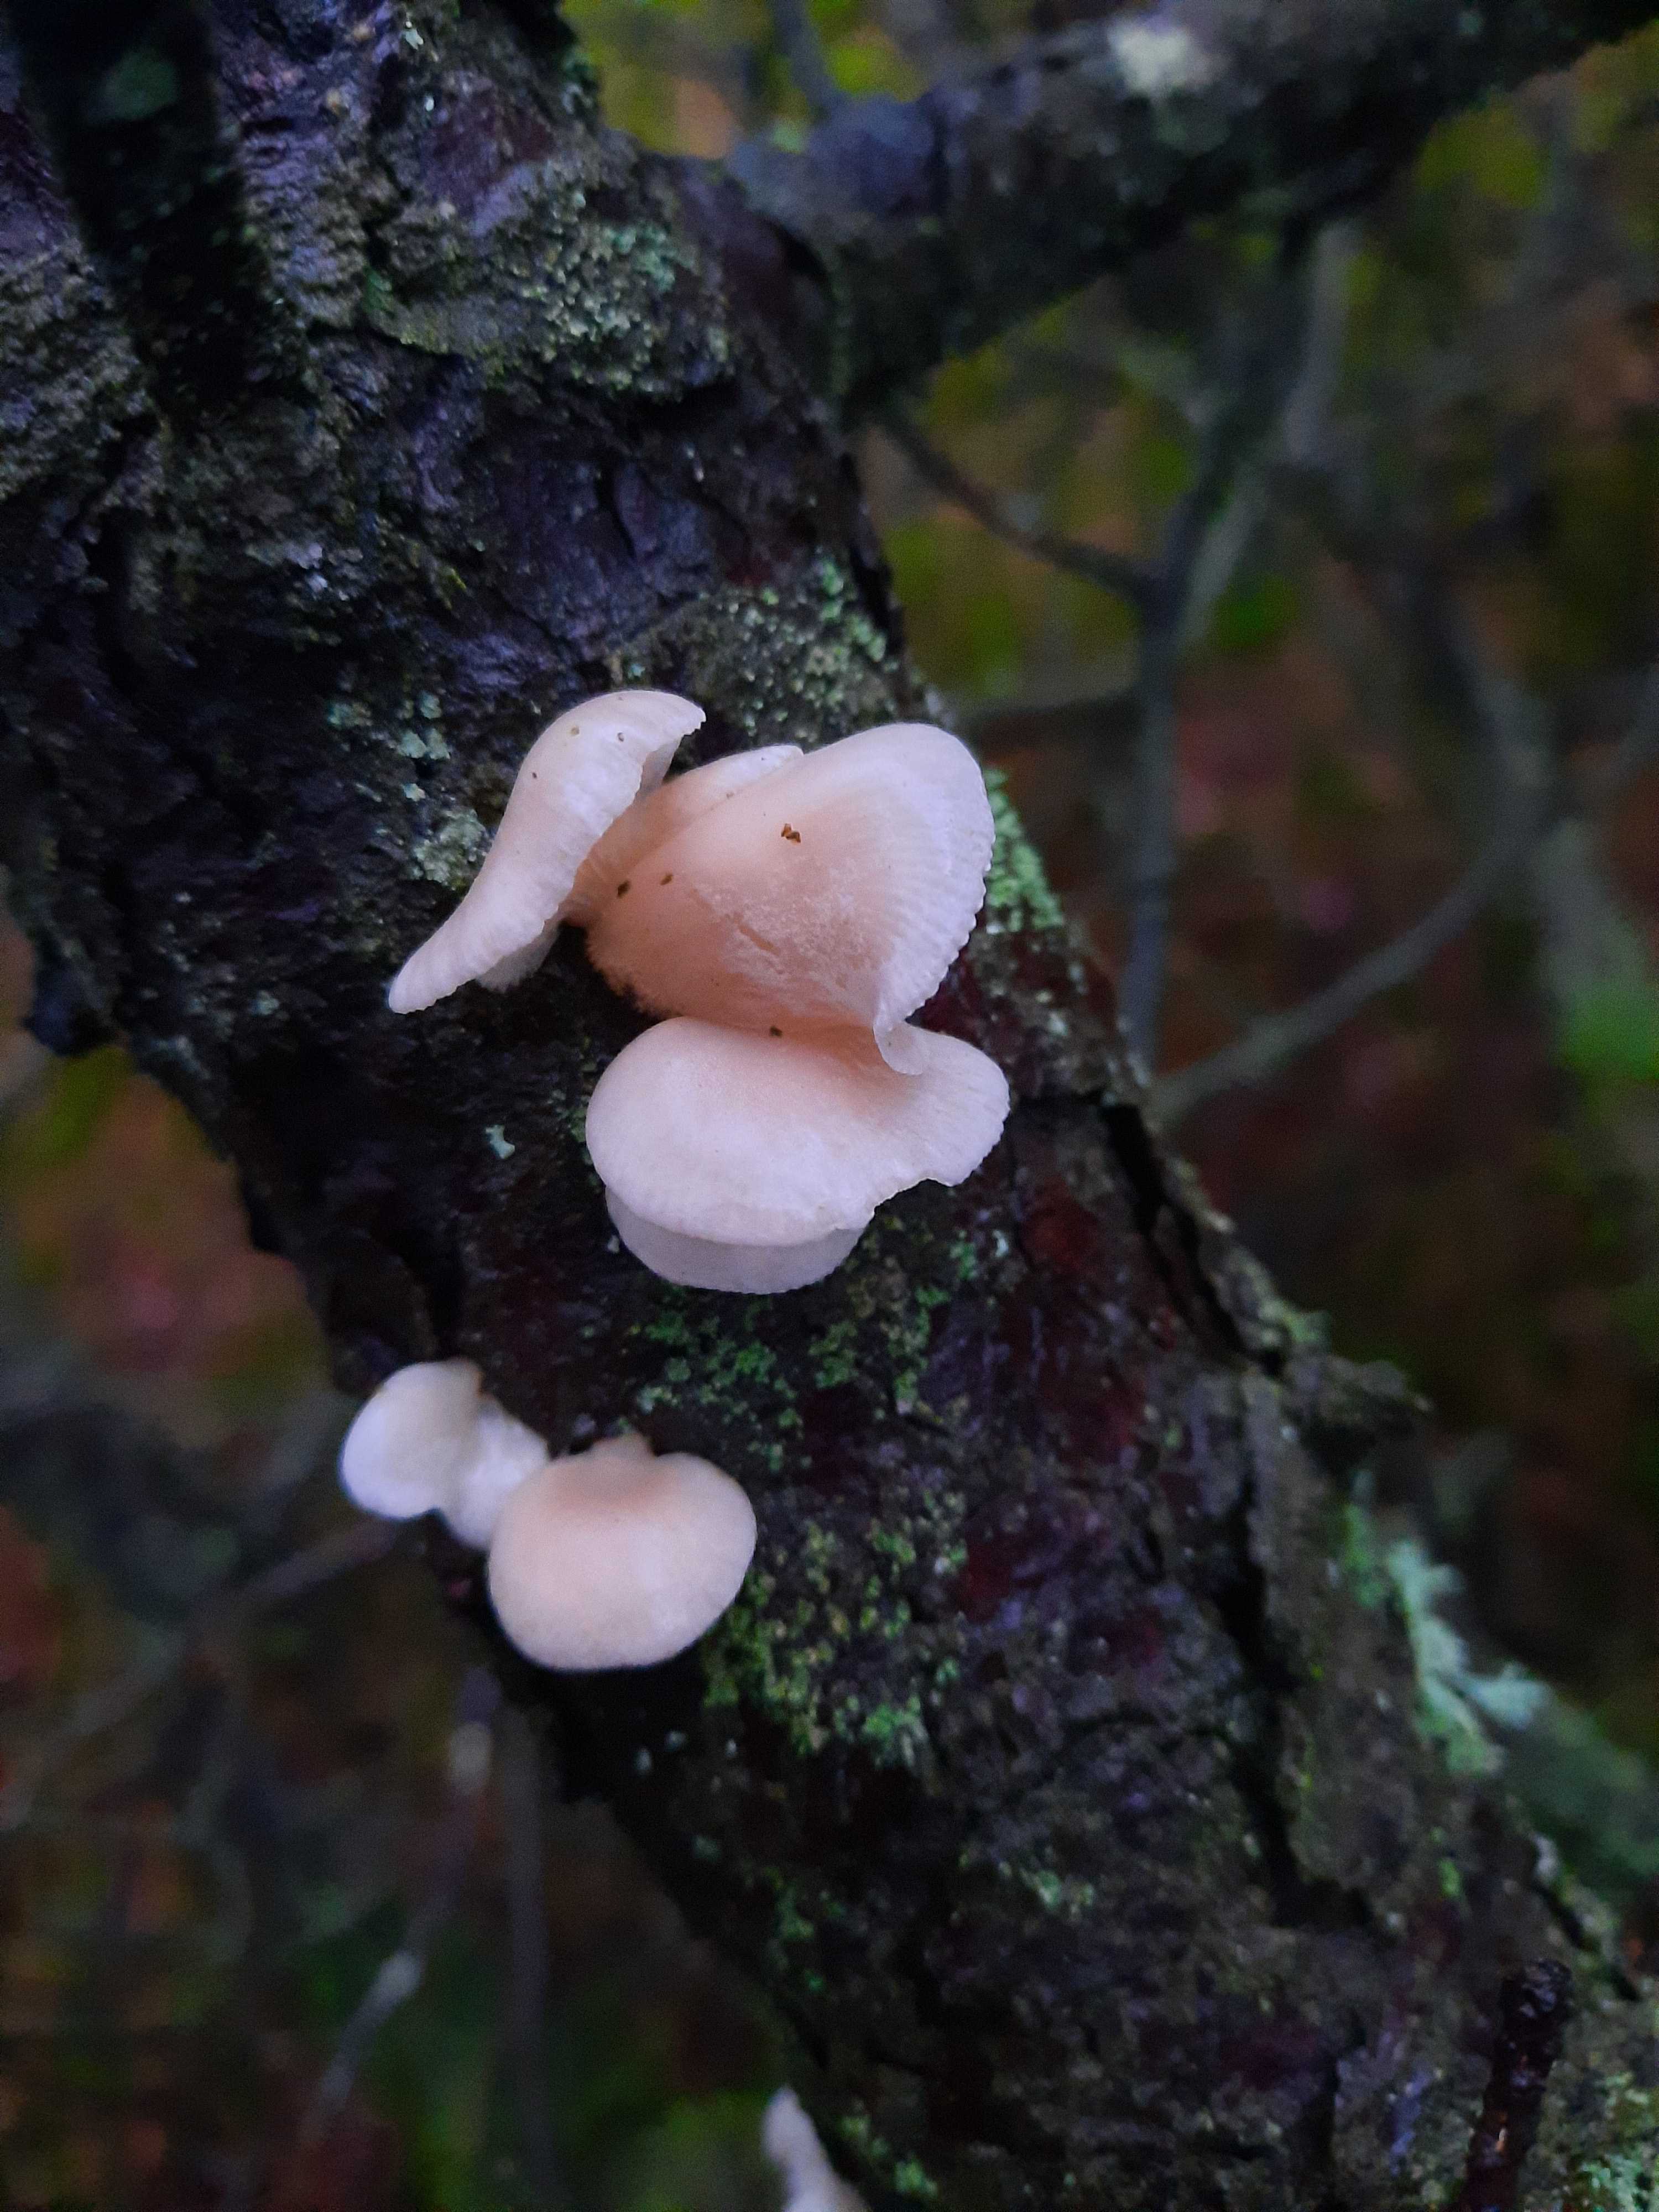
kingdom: Fungi
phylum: Basidiomycota
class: Agaricomycetes
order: Agaricales
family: Mycenaceae
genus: Panellus
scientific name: Panellus mitis
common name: mild epaulethat
